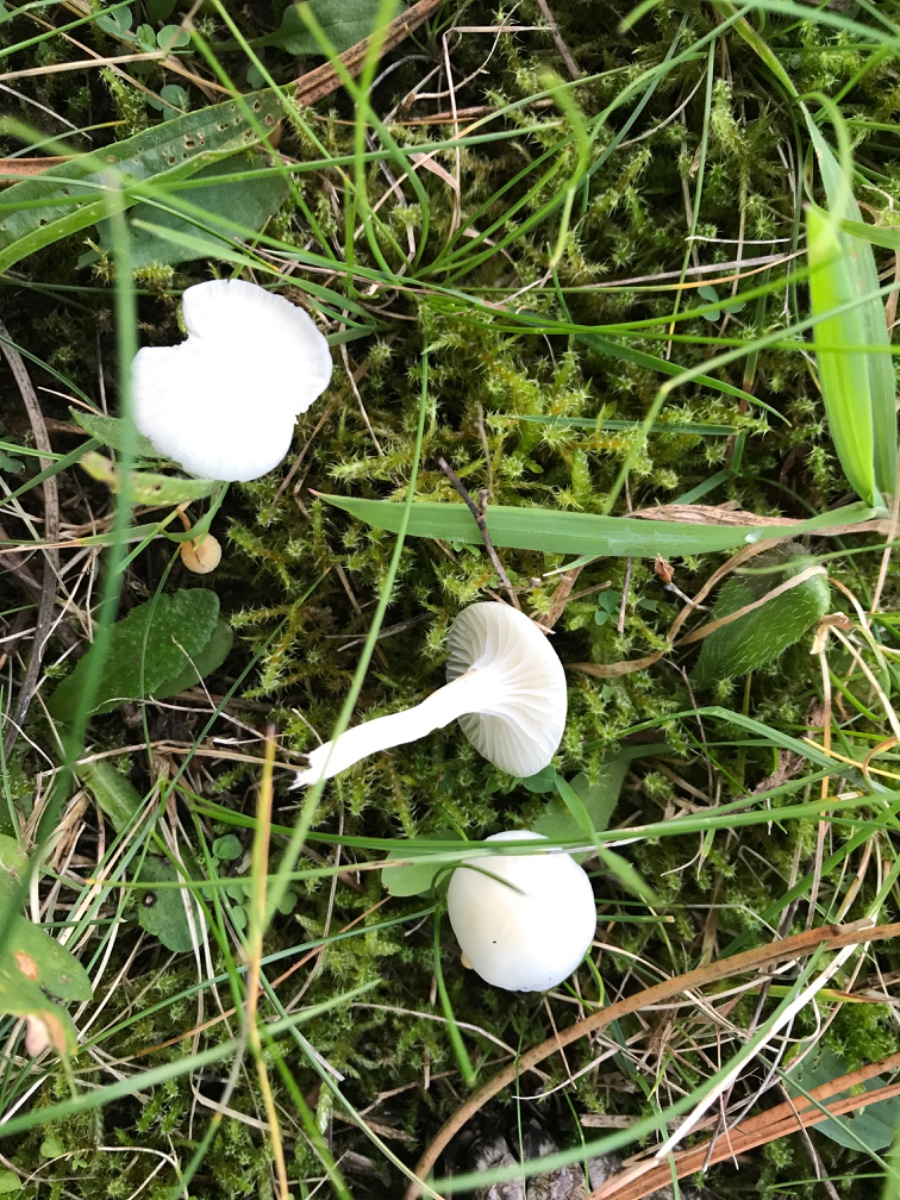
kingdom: Fungi
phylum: Basidiomycota
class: Agaricomycetes
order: Agaricales
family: Hygrophoraceae
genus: Cuphophyllus
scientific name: Cuphophyllus virgineus
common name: snehvid vokshat
